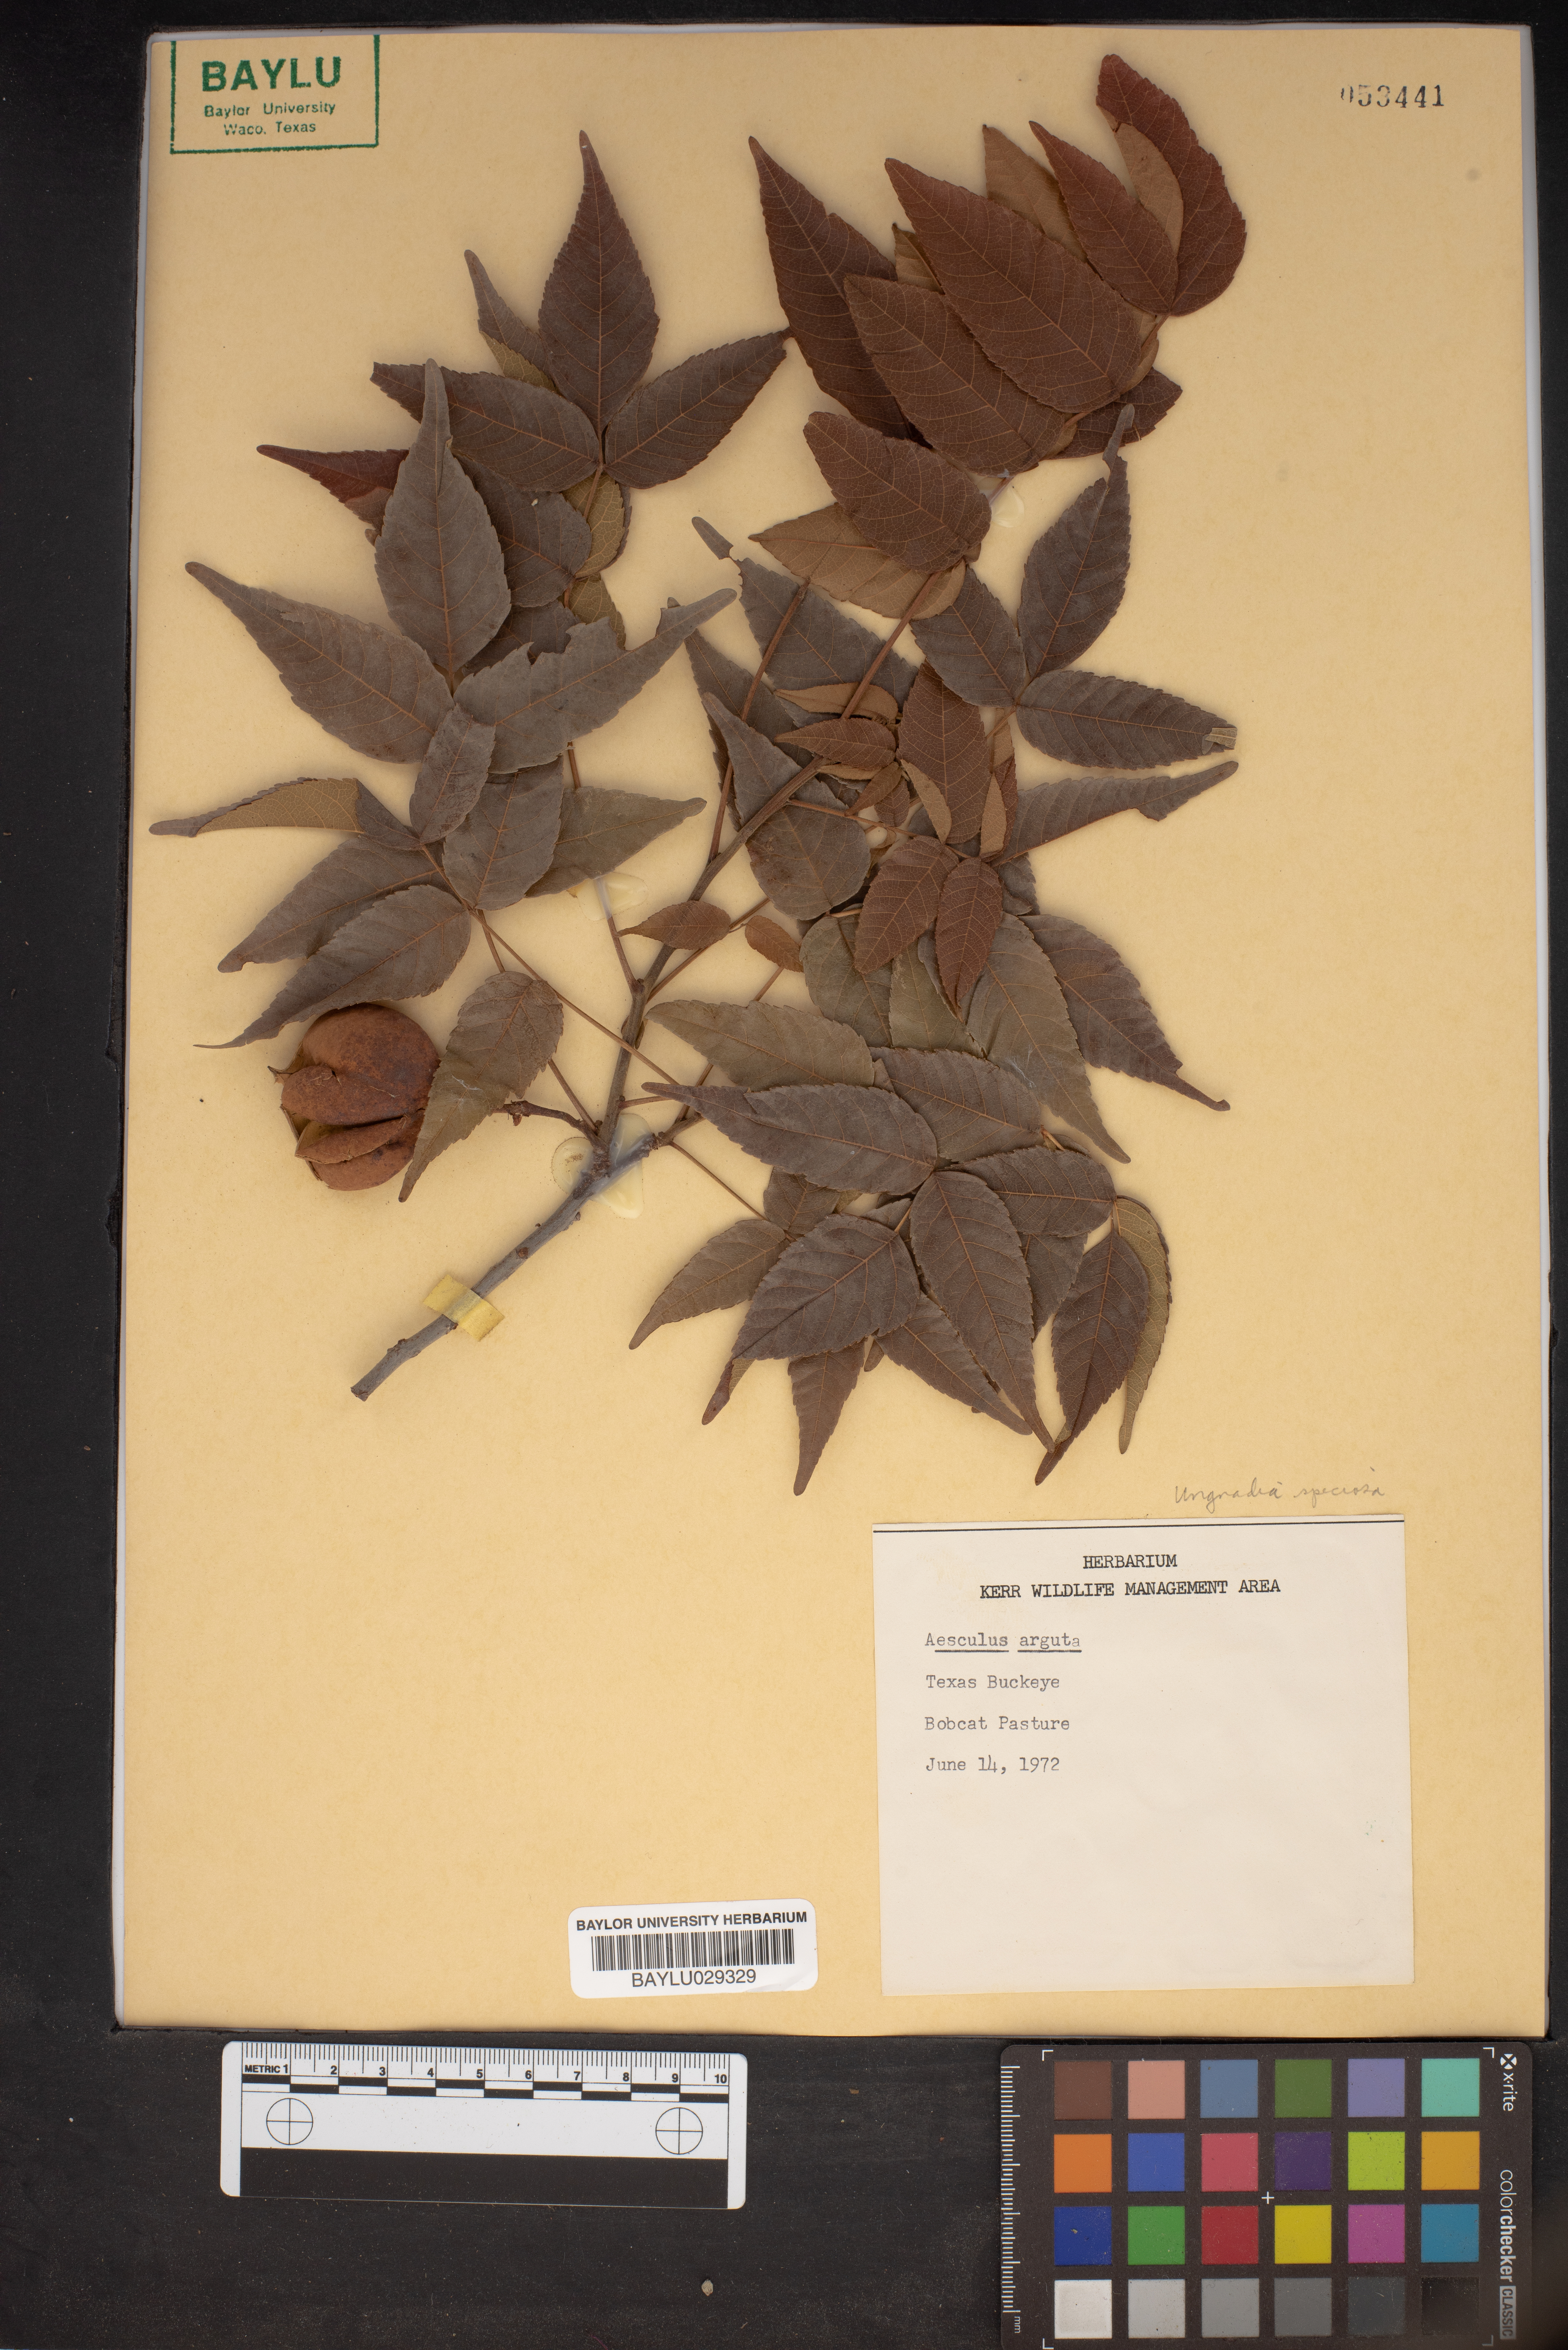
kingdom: Plantae
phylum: Tracheophyta
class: Magnoliopsida
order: Sapindales
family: Sapindaceae
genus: Aesculus
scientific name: Aesculus glabra
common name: Ohio buckeye
